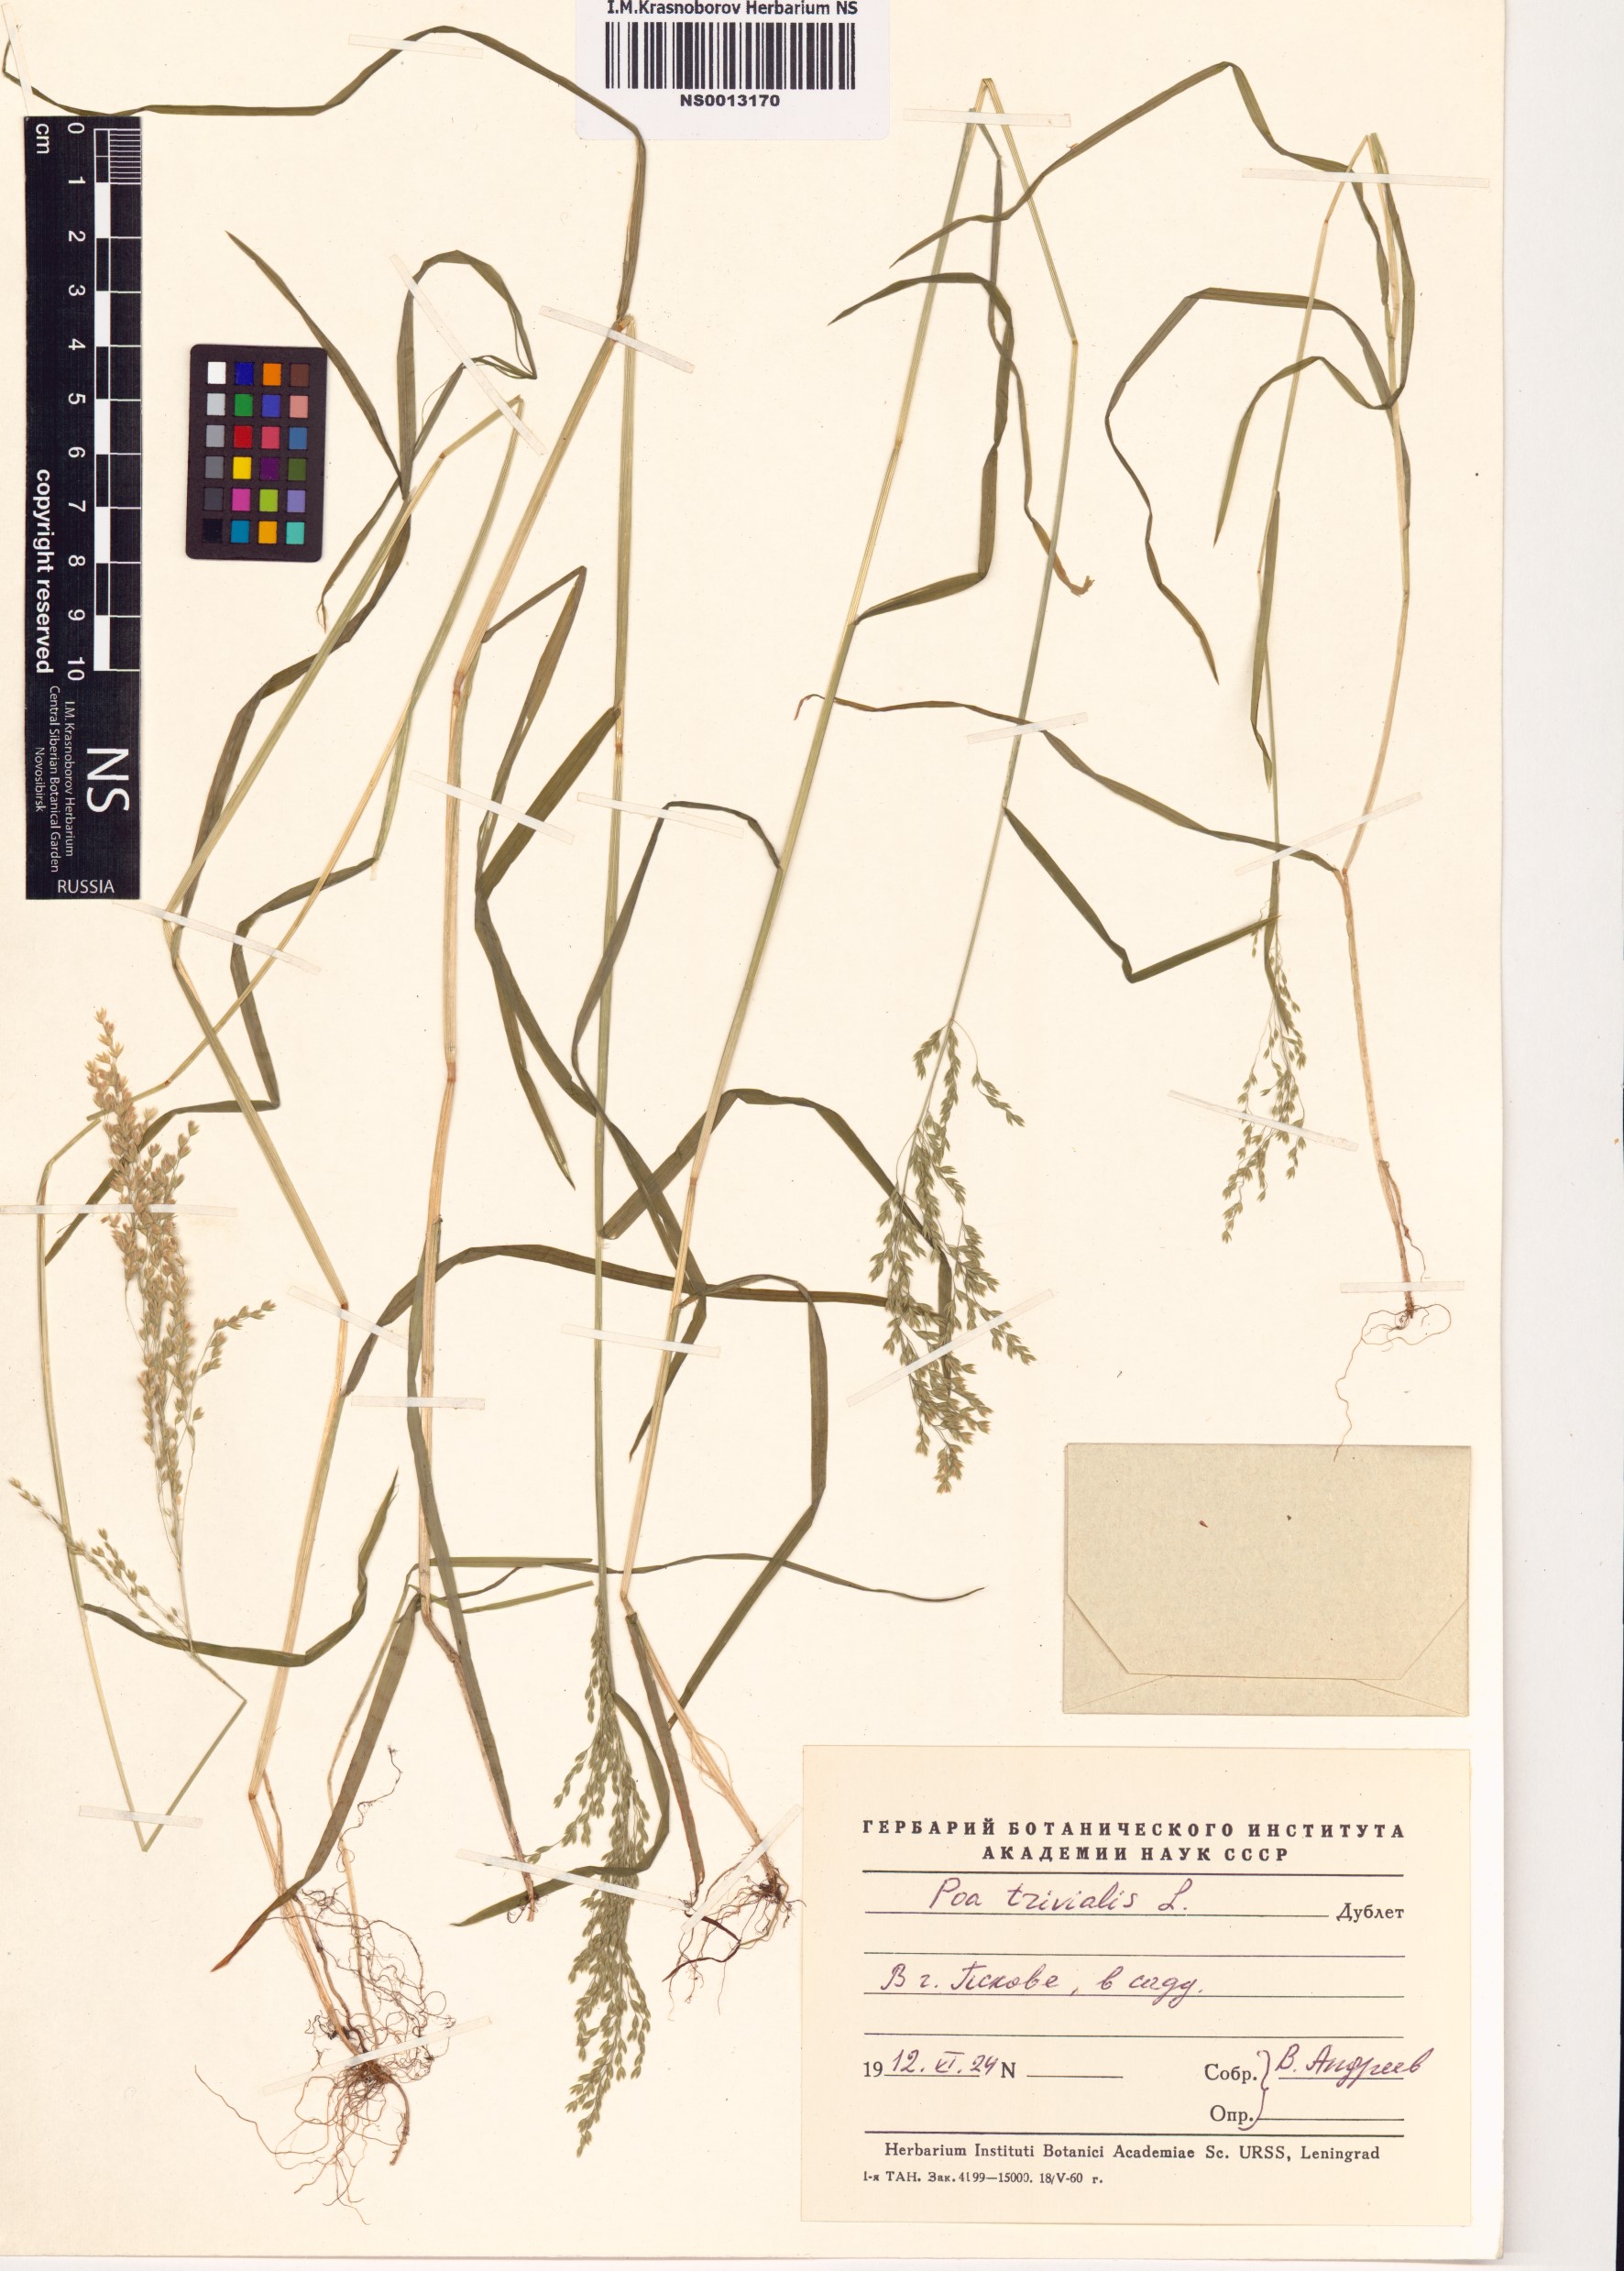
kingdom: Plantae
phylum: Tracheophyta
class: Liliopsida
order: Poales
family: Poaceae
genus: Poa
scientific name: Poa trivialis
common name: Rough bluegrass
